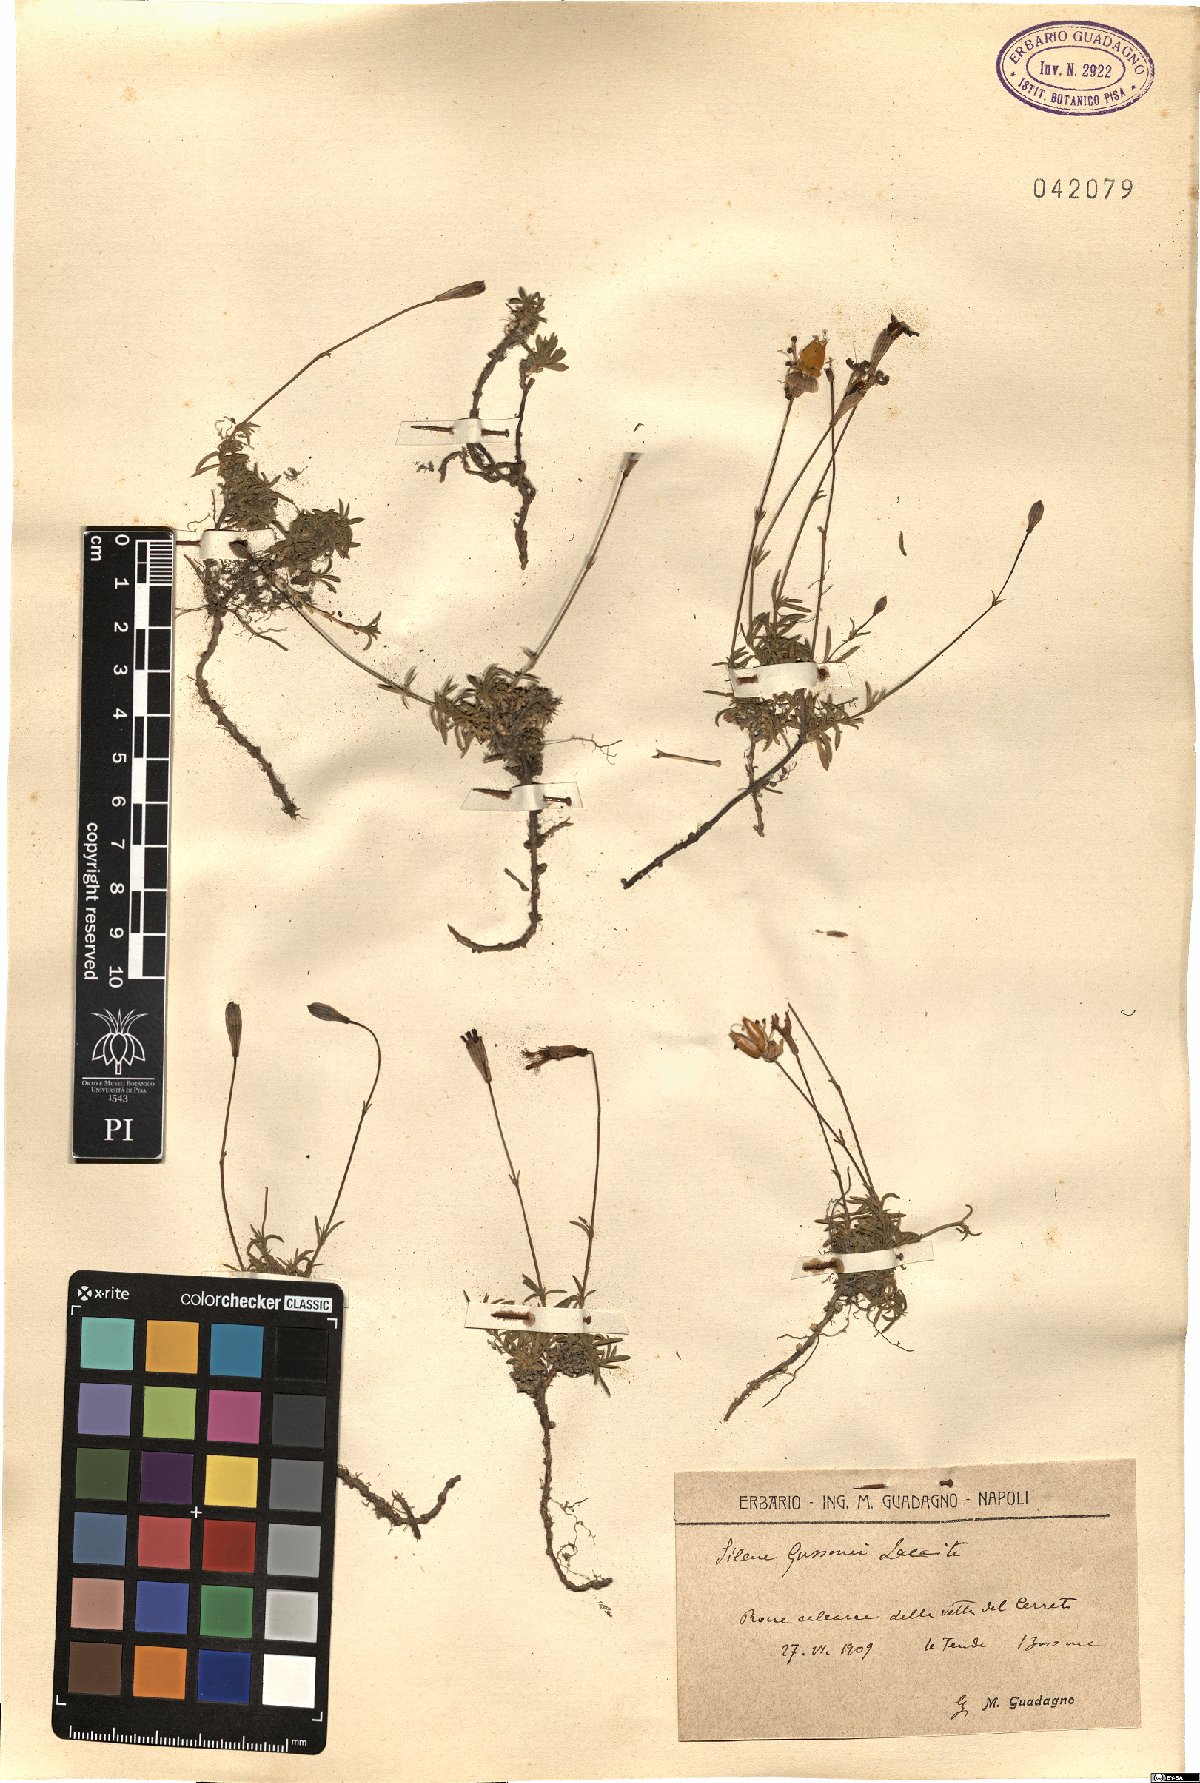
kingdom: Plantae
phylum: Tracheophyta
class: Magnoliopsida
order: Caryophyllales
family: Caryophyllaceae
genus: Silene
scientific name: Silene
